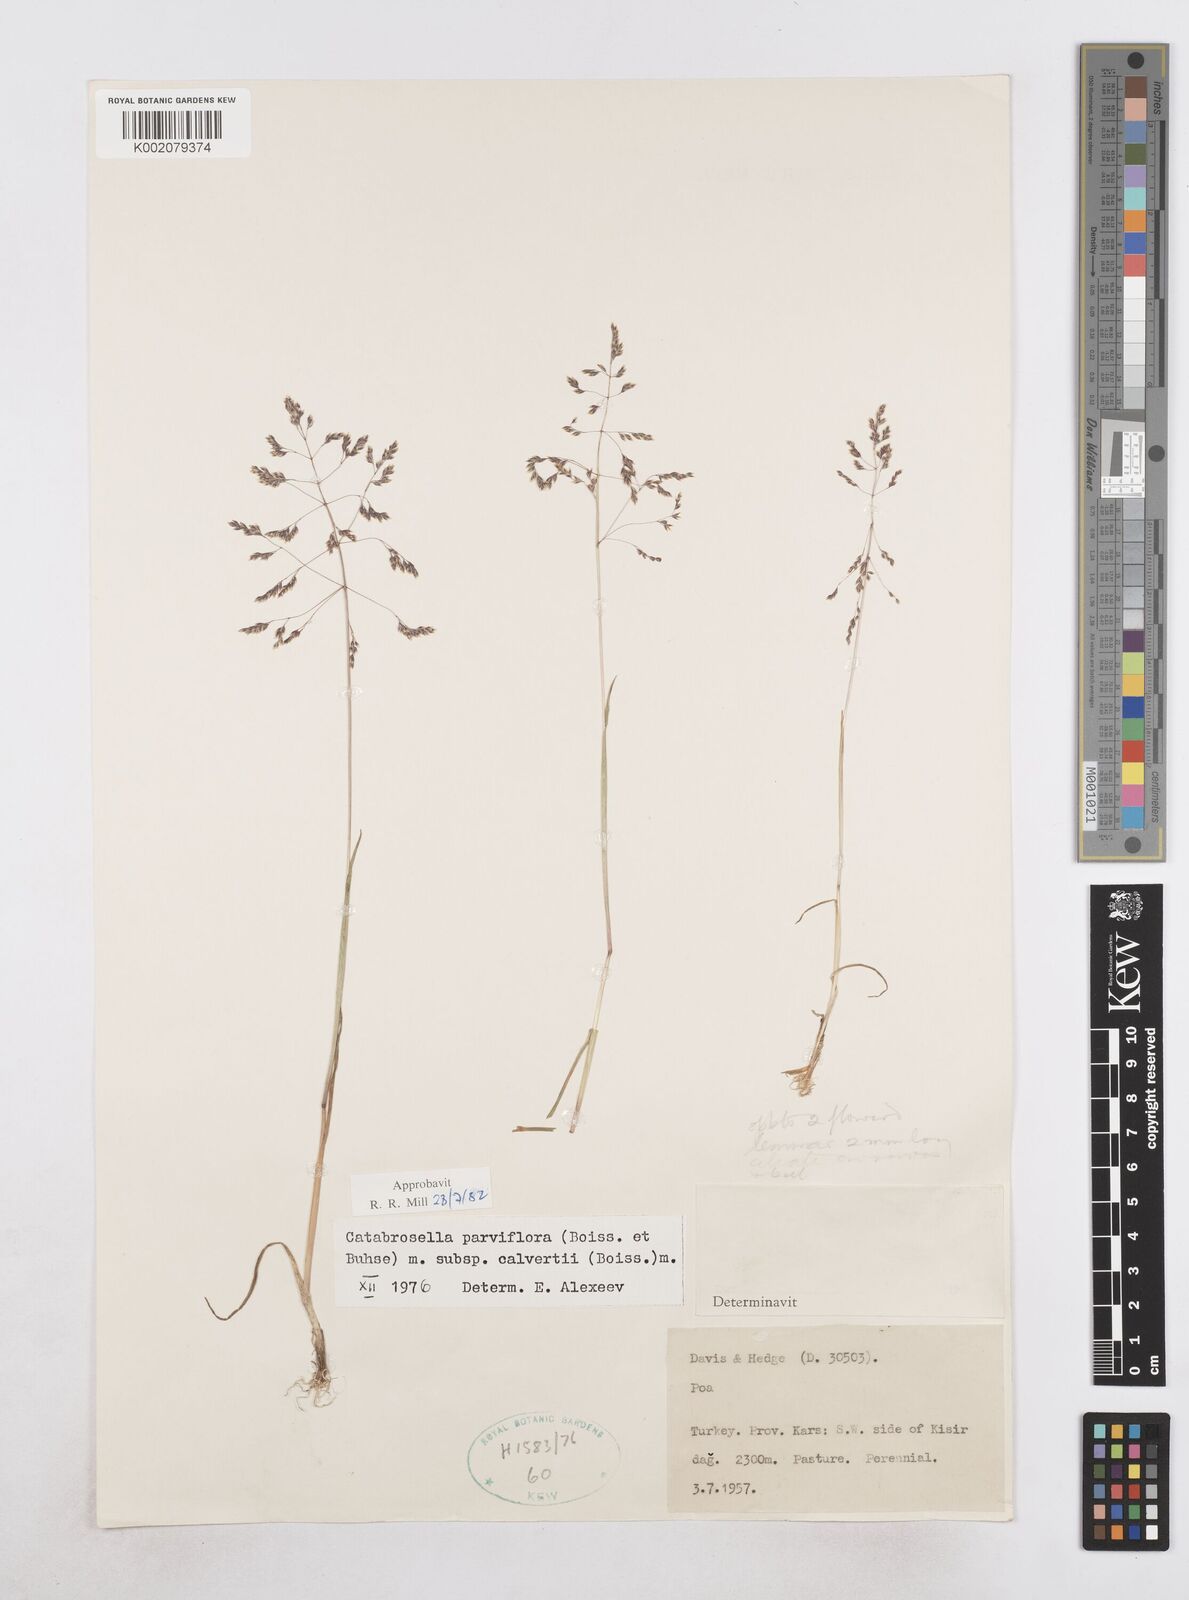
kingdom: Plantae
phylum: Tracheophyta
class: Liliopsida
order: Poales
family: Poaceae
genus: Catabrosella
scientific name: Catabrosella humilis
